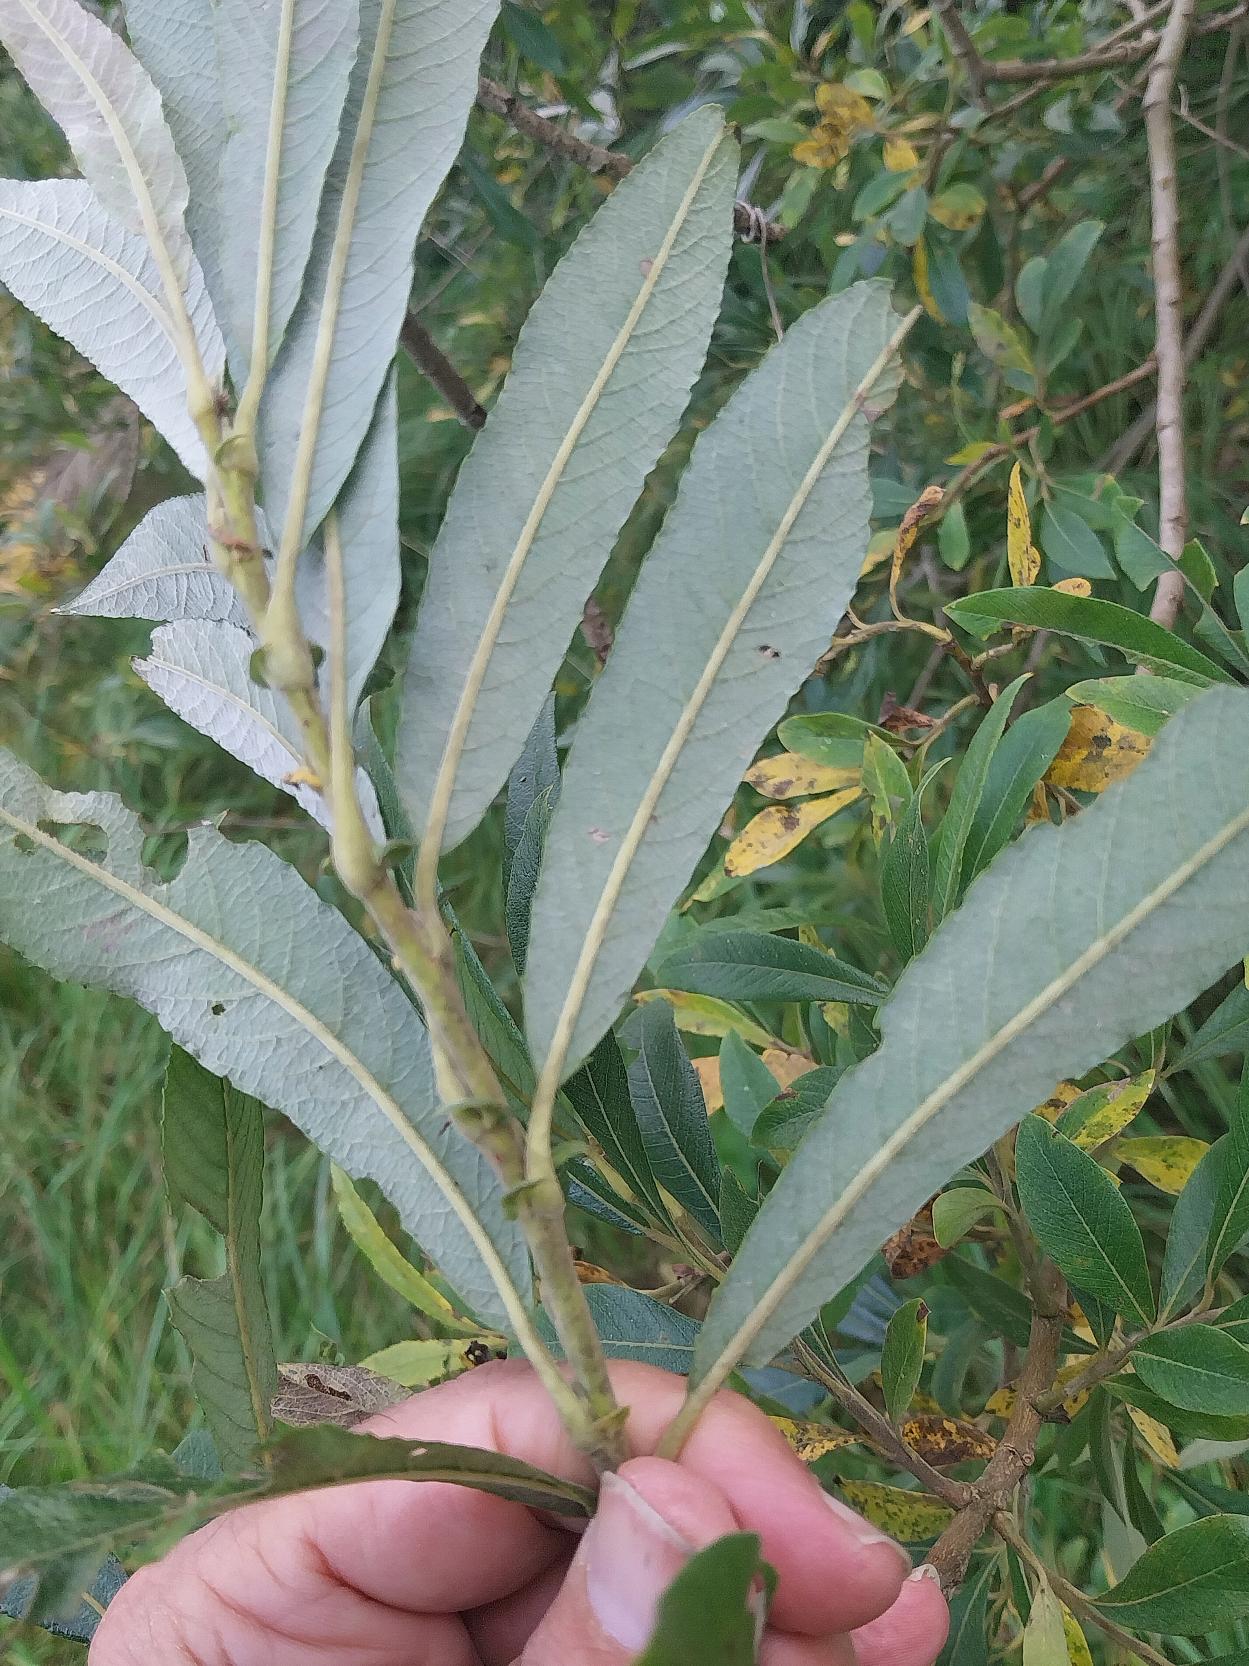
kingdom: Plantae
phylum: Tracheophyta
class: Magnoliopsida
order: Malpighiales
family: Salicaceae
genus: Salix
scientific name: Salix
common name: Øret pil × bånd-pil
